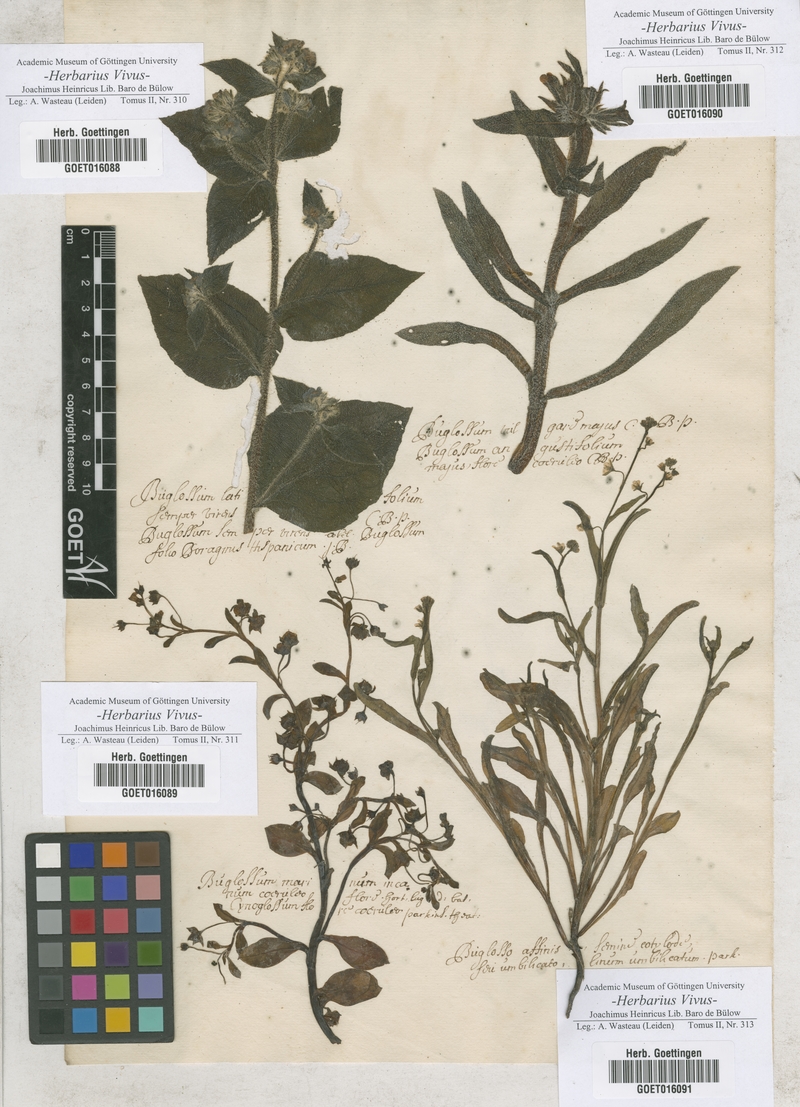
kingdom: Plantae
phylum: Tracheophyta
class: Magnoliopsida
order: Boraginales
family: Boraginaceae
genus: Pentaglottis
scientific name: Pentaglottis sempervirens
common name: Green alkanet
